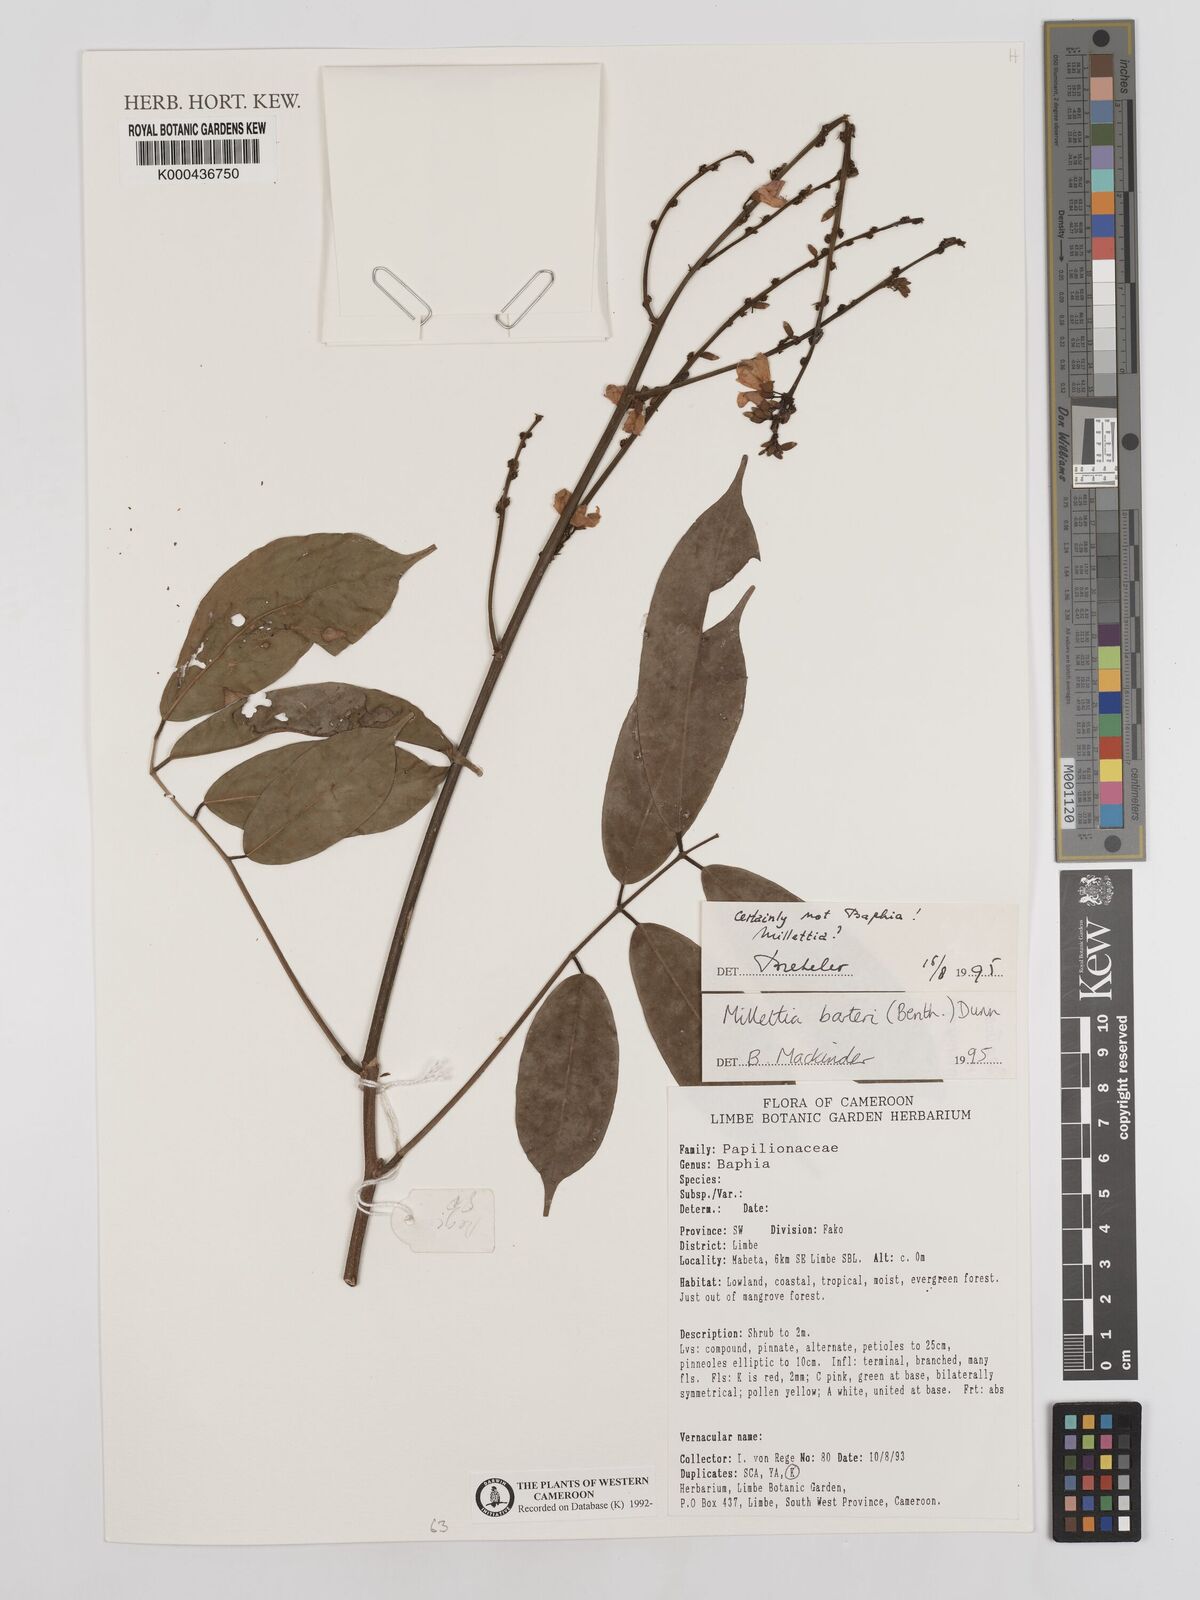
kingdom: Plantae
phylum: Tracheophyta
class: Magnoliopsida
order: Fabales
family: Fabaceae
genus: Millettia
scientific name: Millettia barteri
